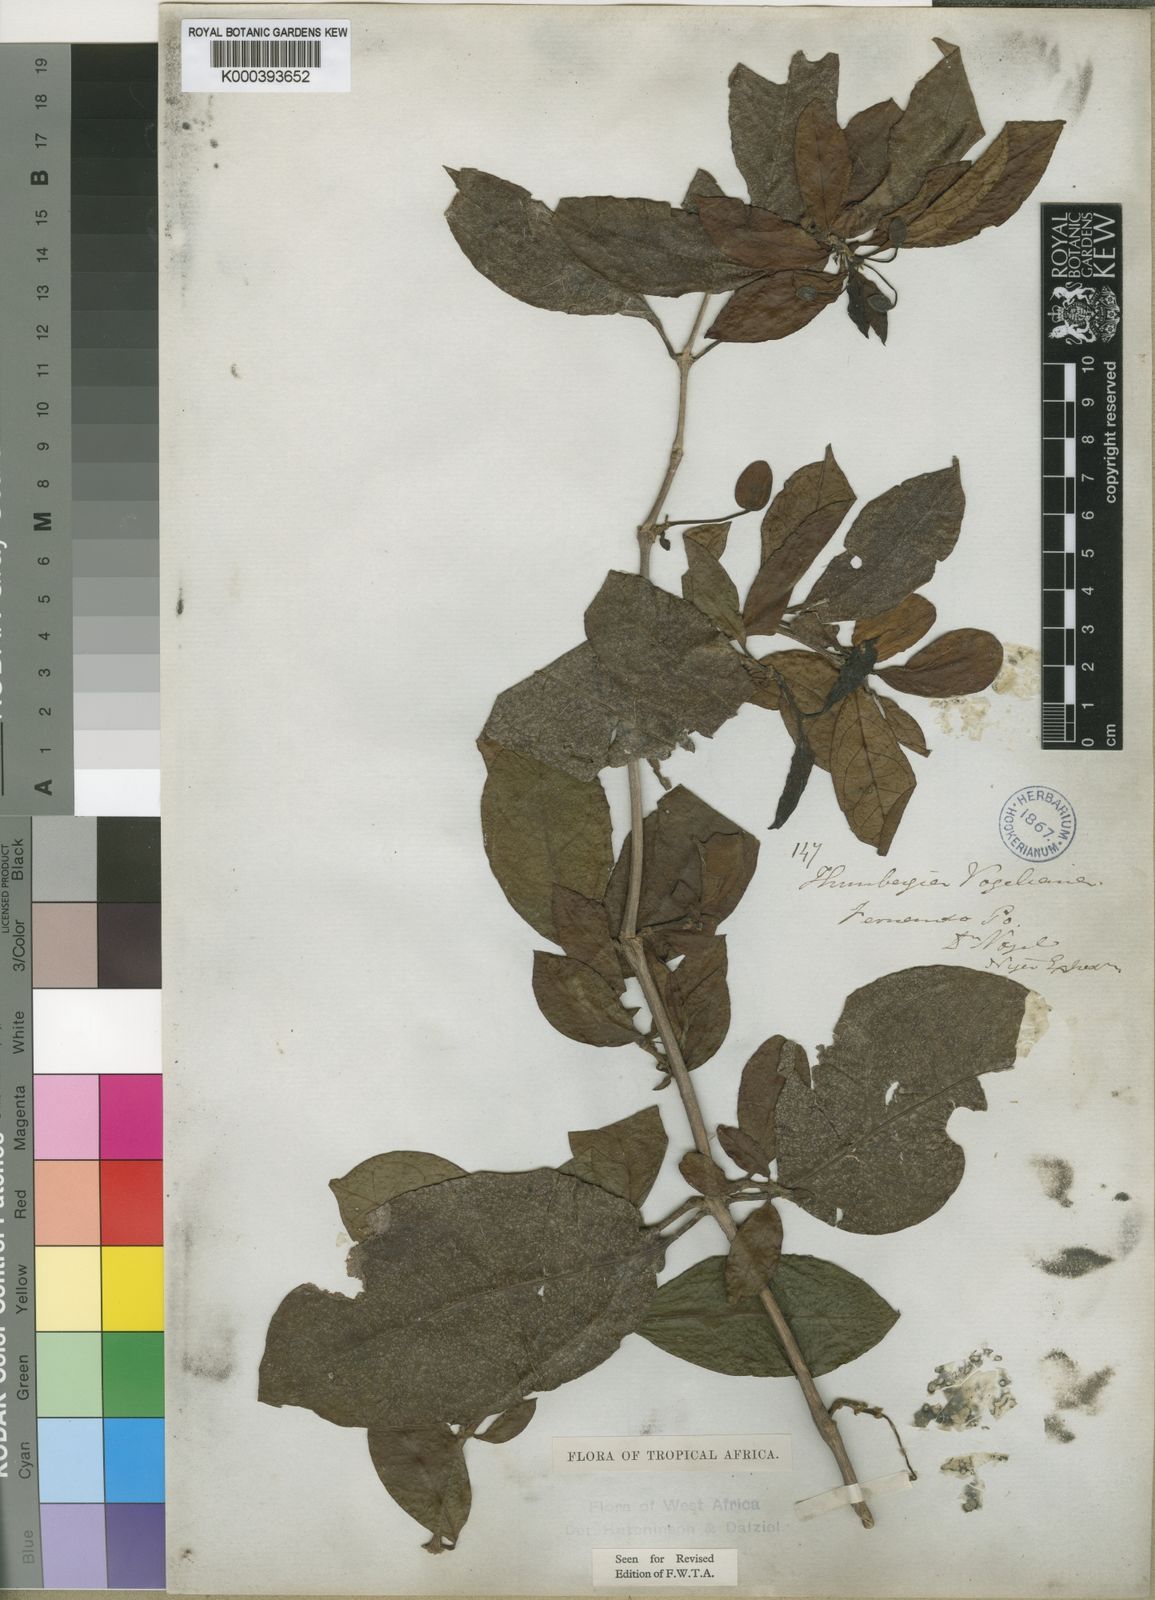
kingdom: Plantae
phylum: Tracheophyta
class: Magnoliopsida
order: Lamiales
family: Acanthaceae
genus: Thunbergia
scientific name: Thunbergia vogeliana
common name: Acanthaceae
